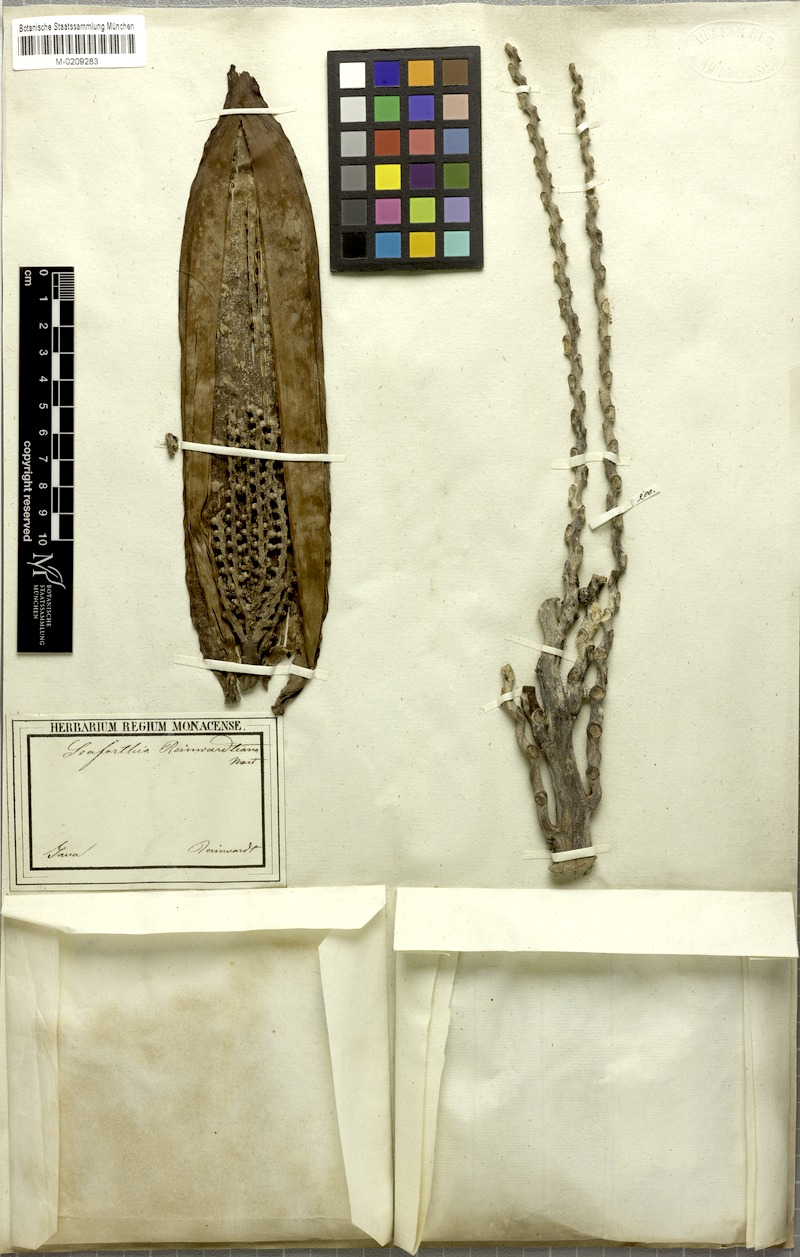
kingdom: Plantae
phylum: Tracheophyta
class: Liliopsida
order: Arecales
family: Arecaceae
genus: Pinanga
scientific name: Pinanga coronata
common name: Ivory cane palm
